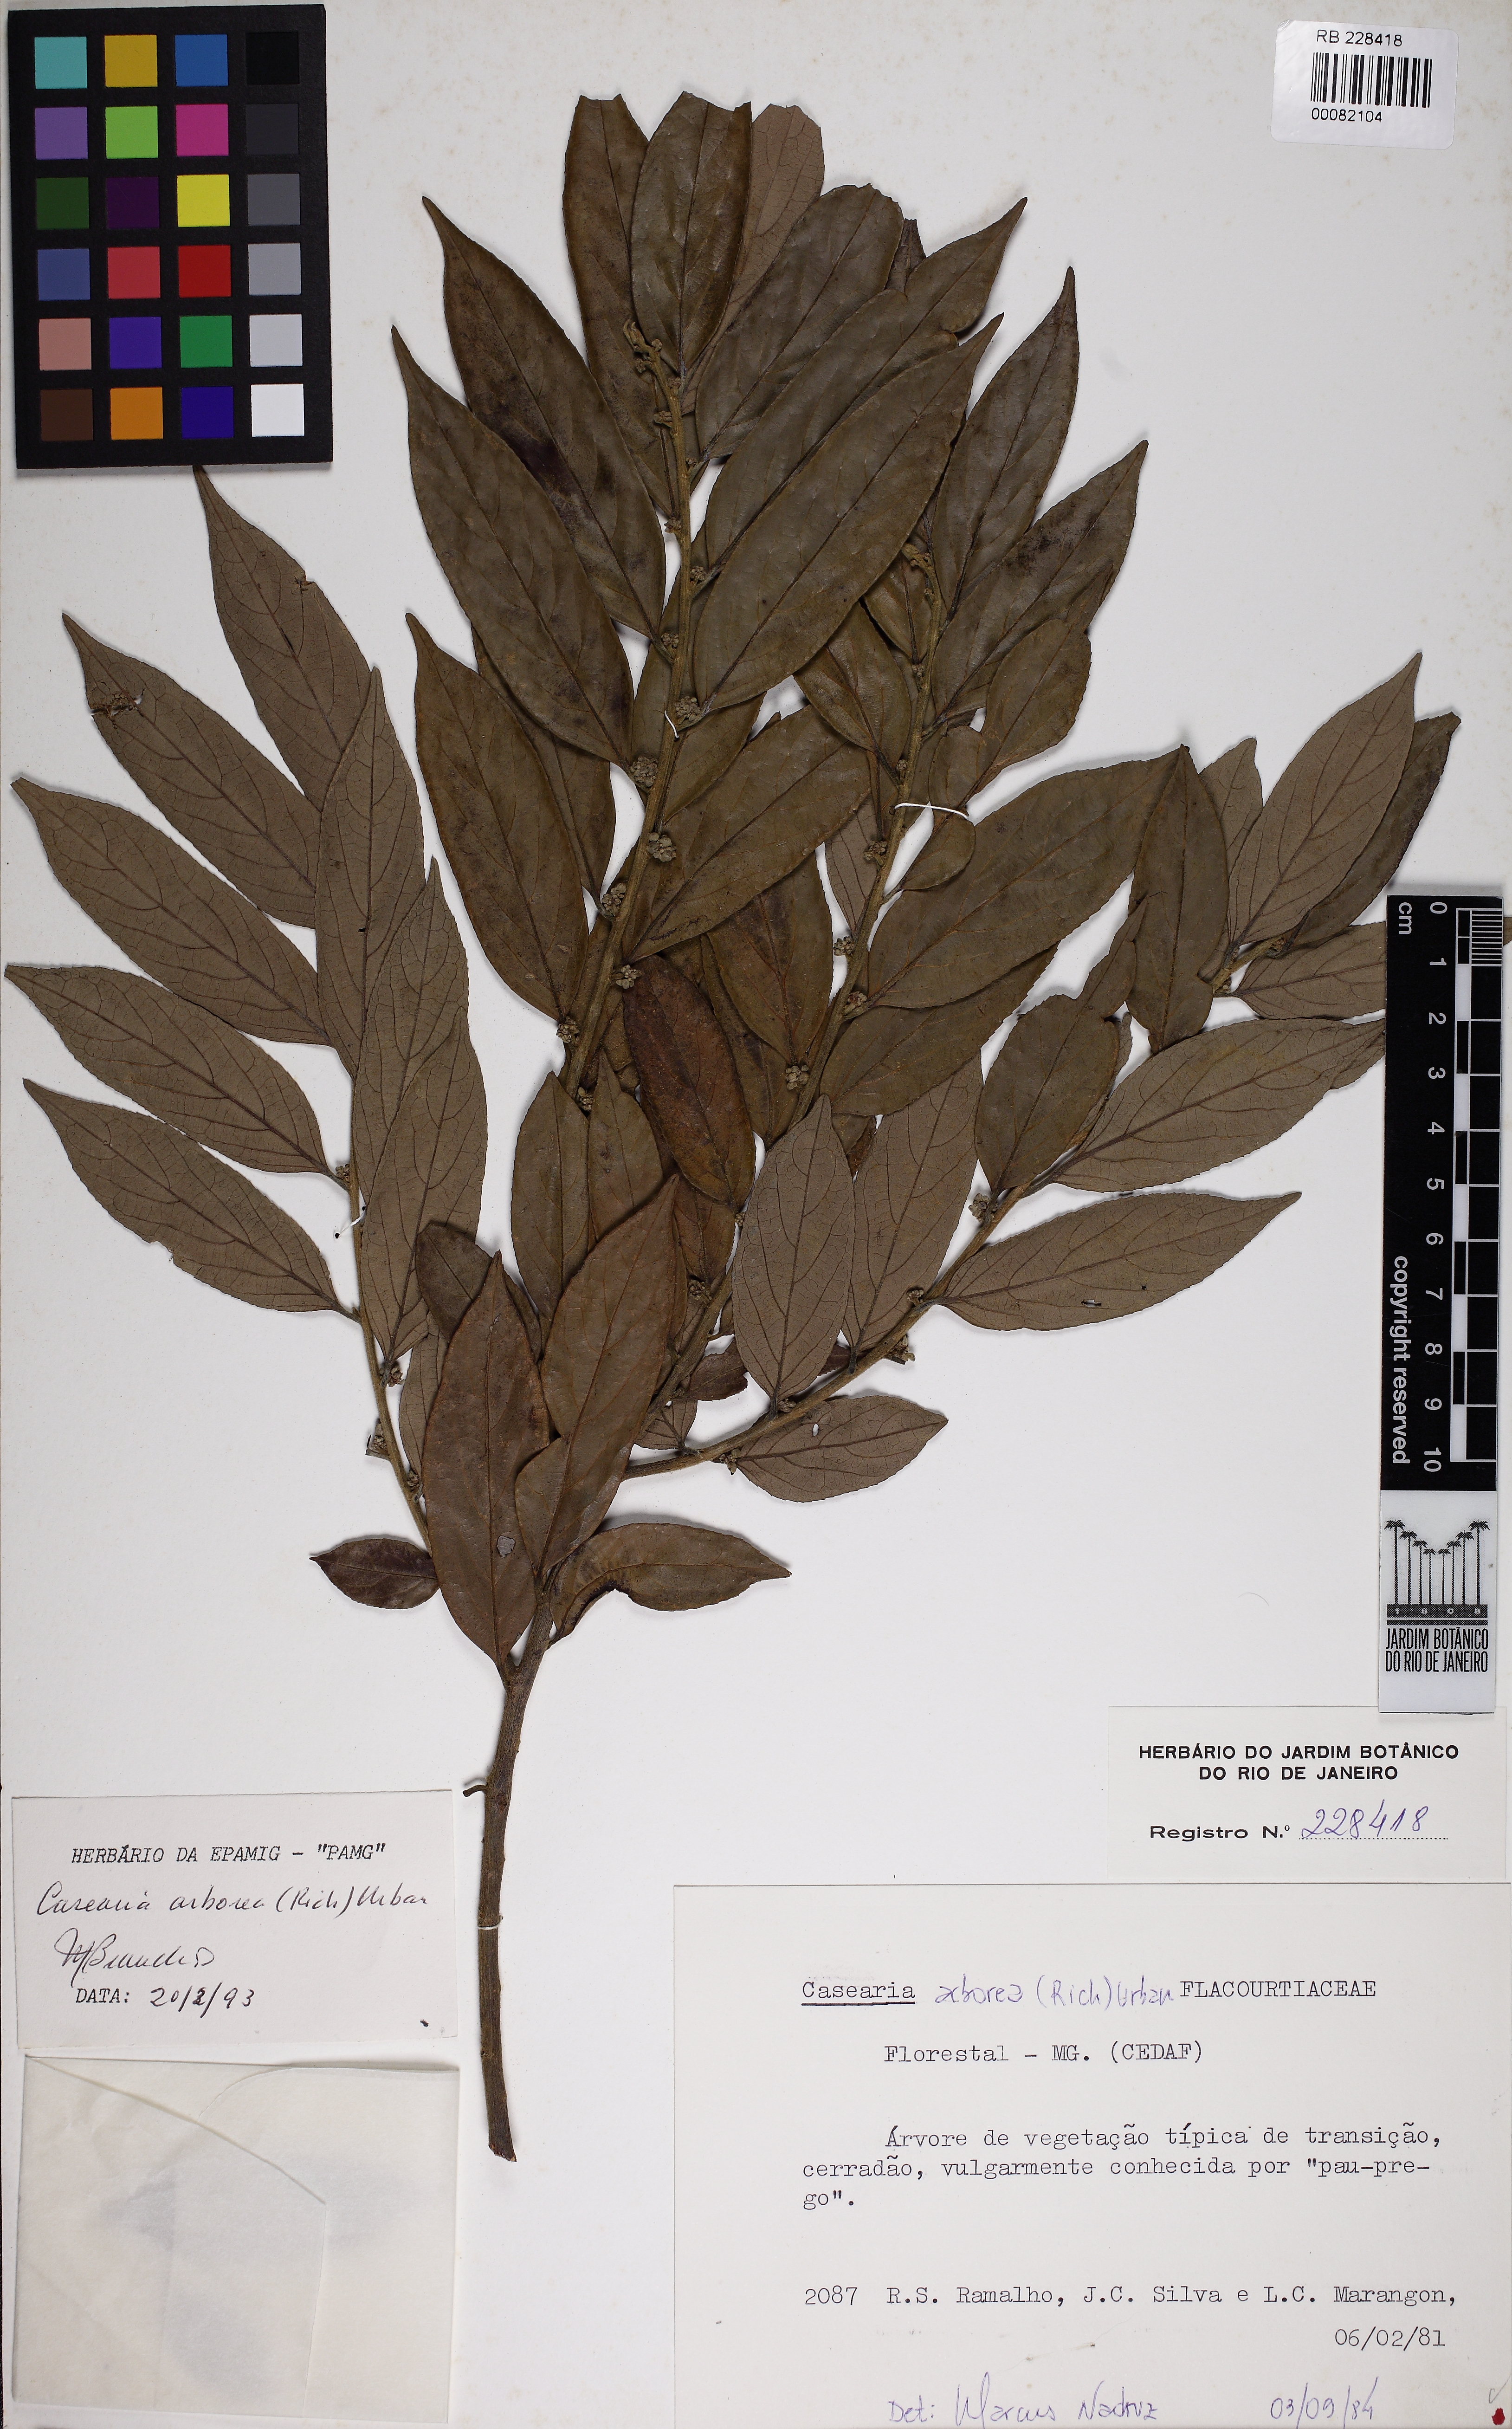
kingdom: Plantae
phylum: Tracheophyta
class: Magnoliopsida
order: Malpighiales
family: Salicaceae
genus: Casearia
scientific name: Casearia
